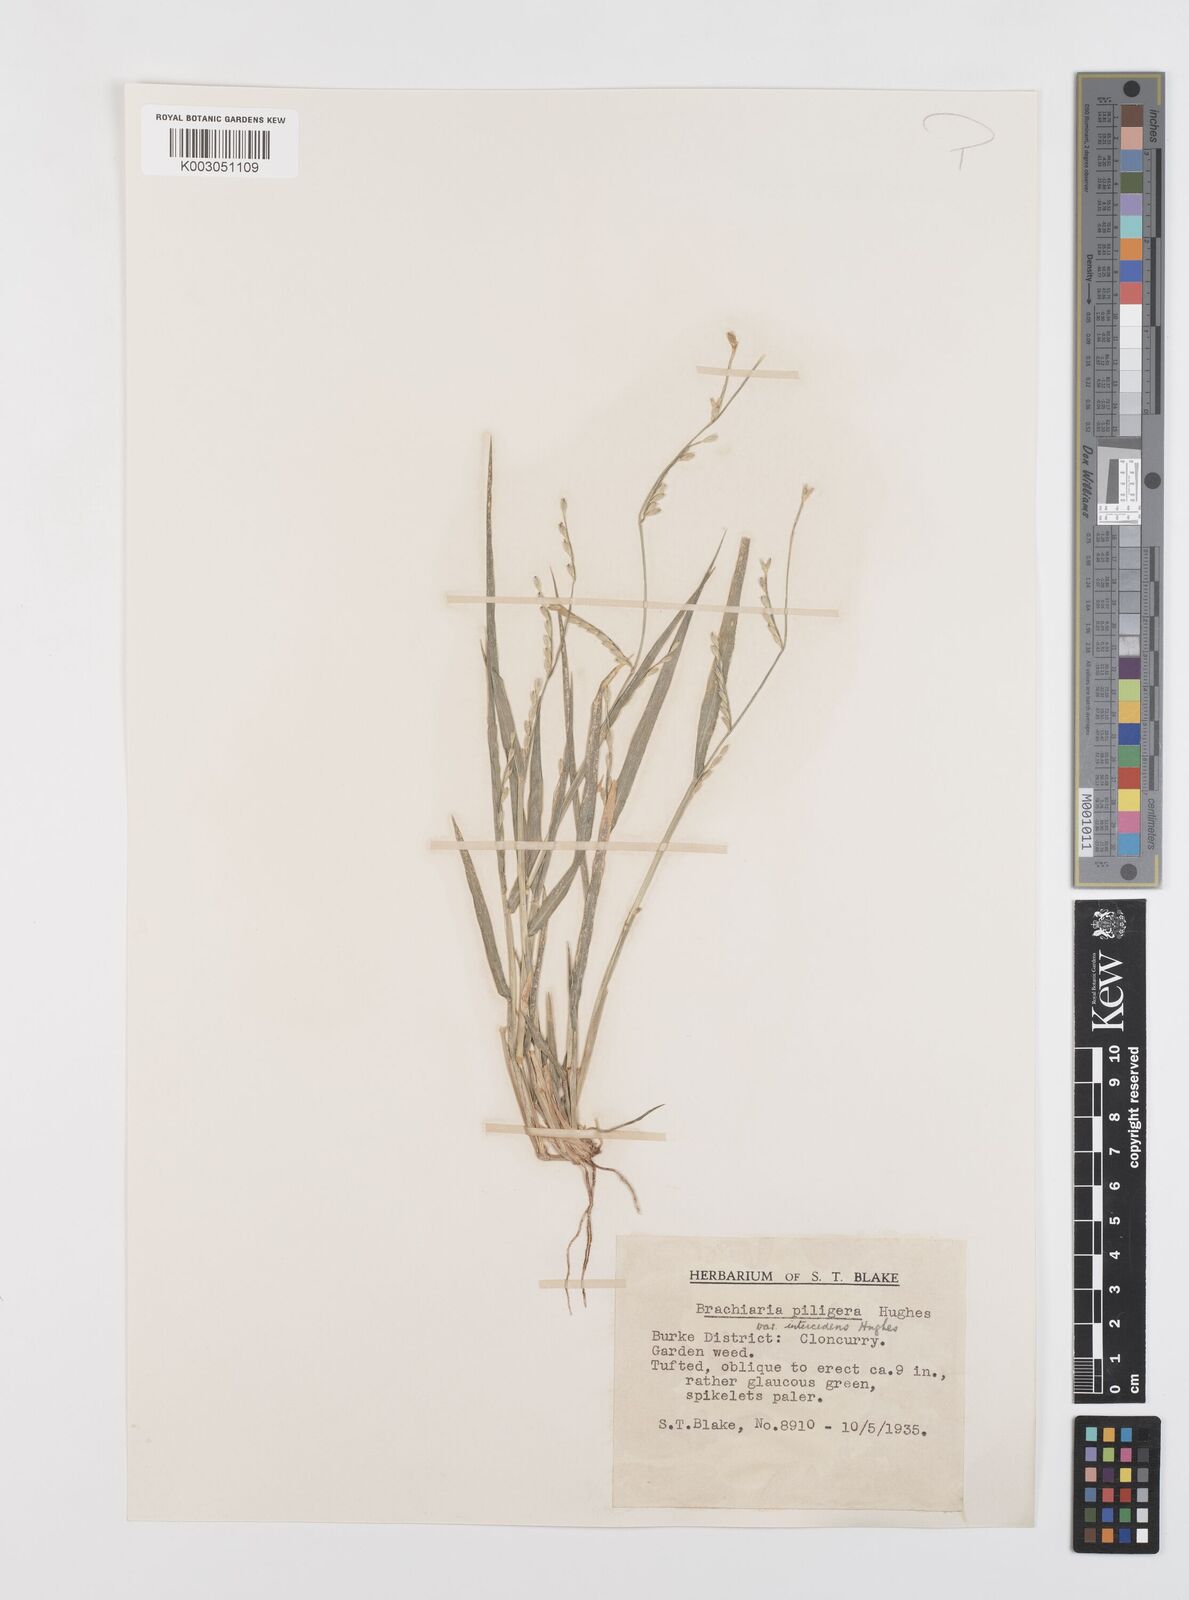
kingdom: Plantae
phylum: Tracheophyta
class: Liliopsida
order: Poales
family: Poaceae
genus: Urochloa
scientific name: Urochloa piligera
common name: Wattle signalgrass
